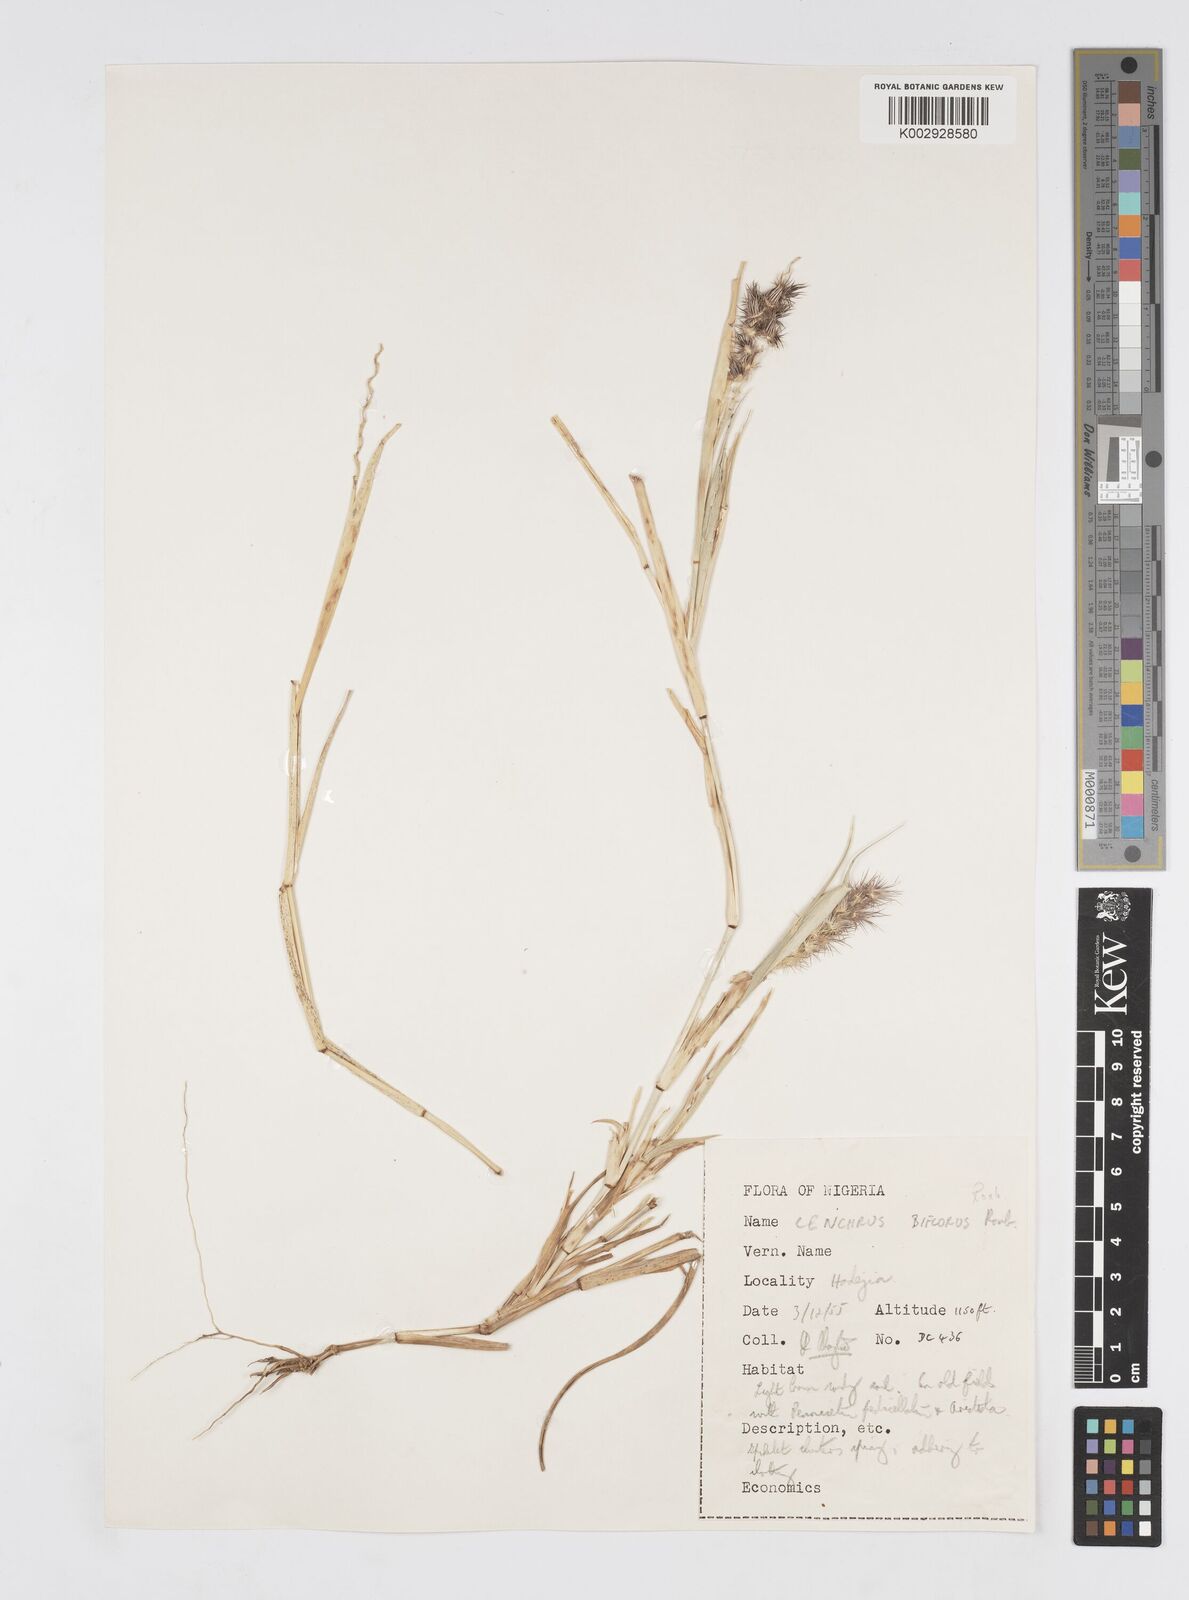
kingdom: Plantae
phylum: Tracheophyta
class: Liliopsida
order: Poales
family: Poaceae
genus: Cenchrus
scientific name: Cenchrus biflorus
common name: Indian sandbur
